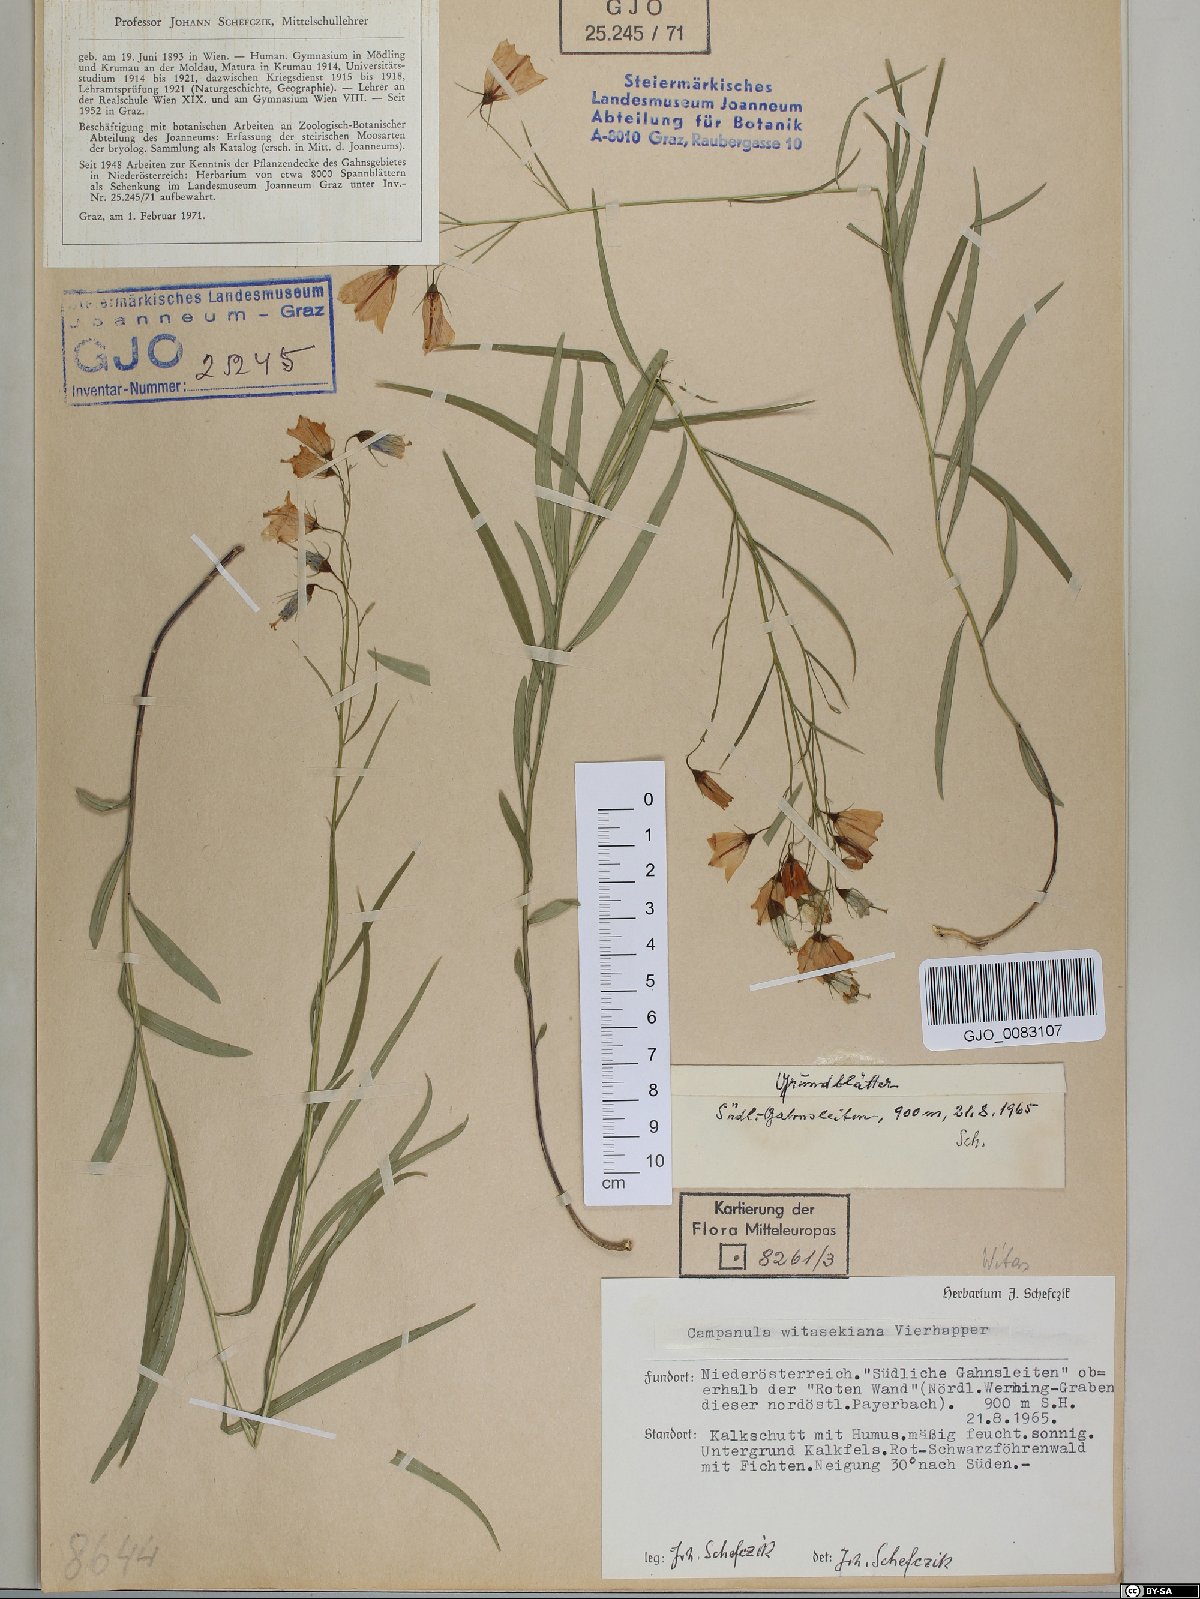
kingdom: Plantae
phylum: Tracheophyta
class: Magnoliopsida
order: Asterales
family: Campanulaceae
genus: Campanula
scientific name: Campanula witasekiana
